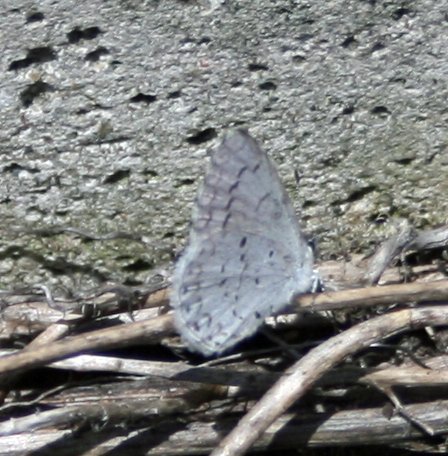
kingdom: Animalia
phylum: Arthropoda
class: Insecta
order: Lepidoptera
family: Lycaenidae
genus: Celastrina
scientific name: Celastrina
